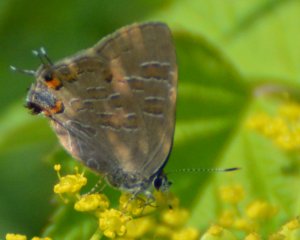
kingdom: Animalia
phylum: Arthropoda
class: Insecta
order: Lepidoptera
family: Lycaenidae
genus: Satyrium
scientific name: Satyrium liparops
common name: Striped Hairstreak
